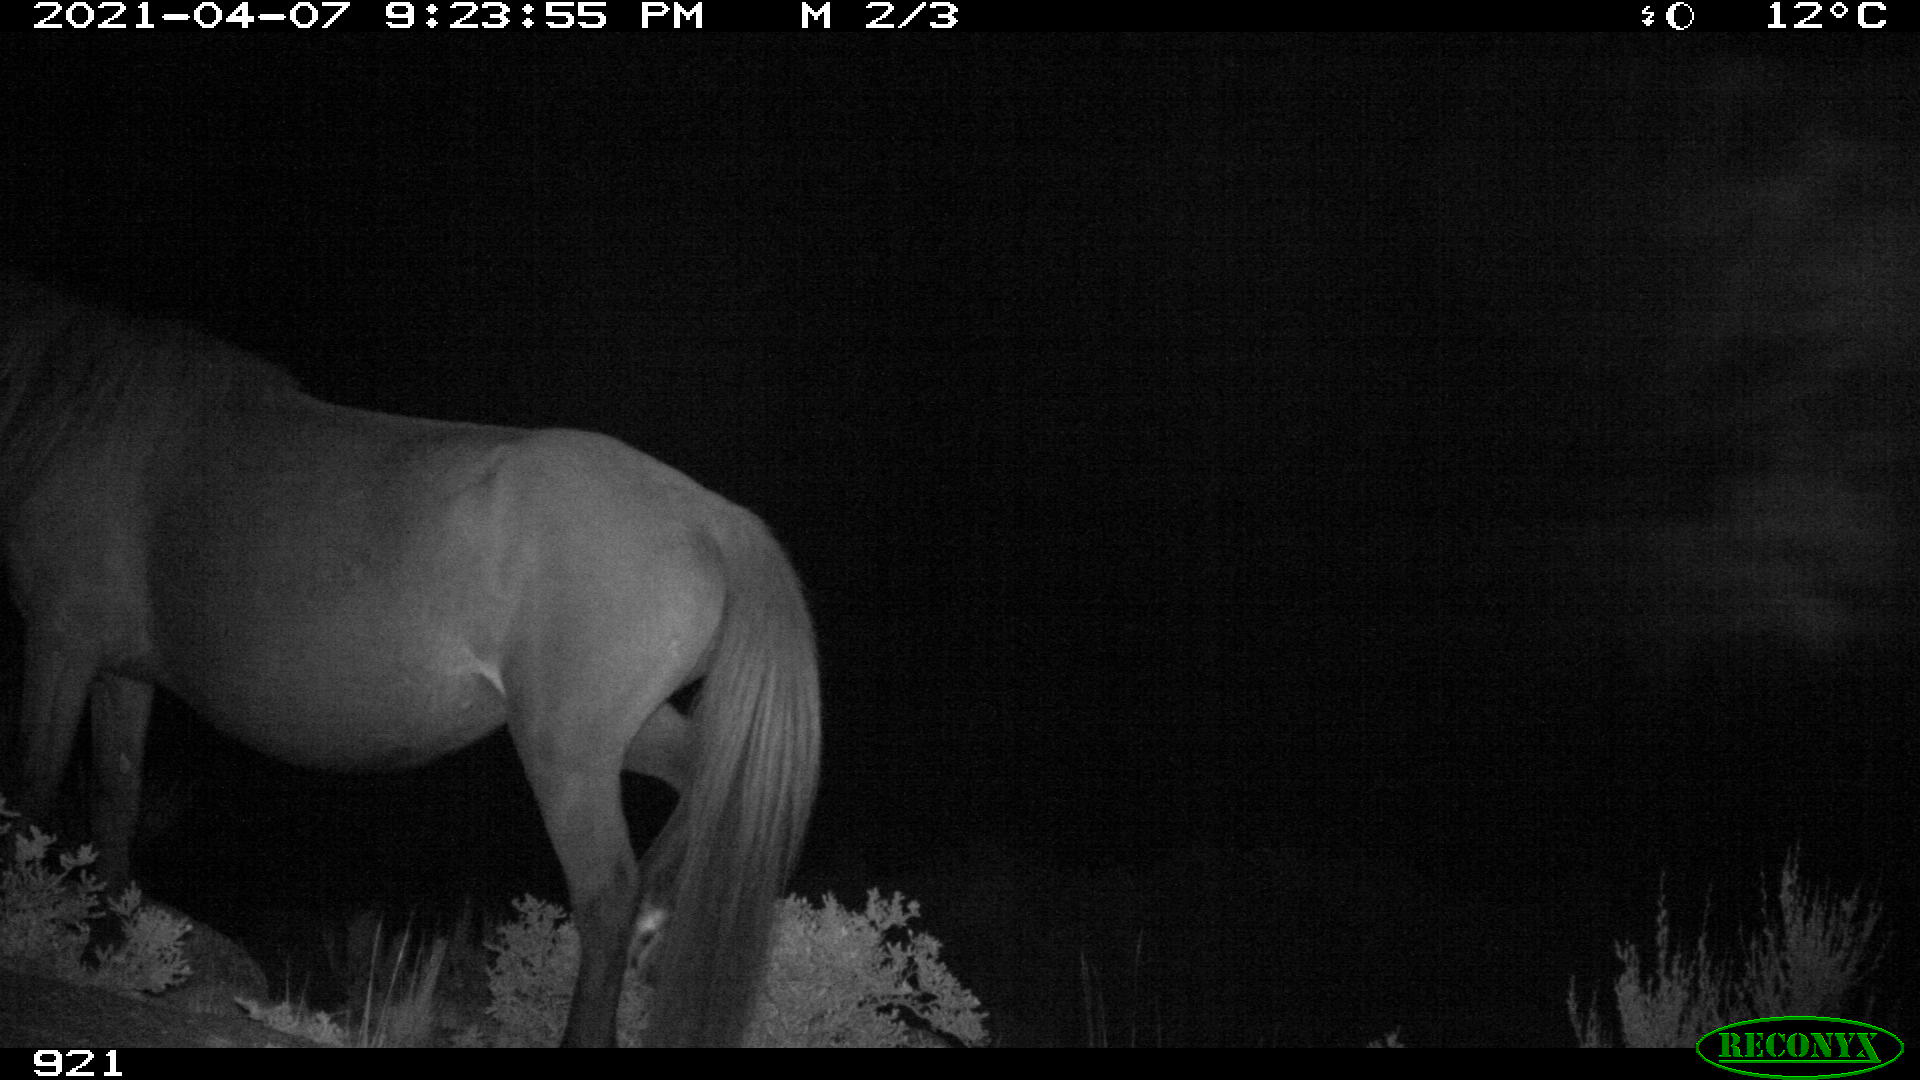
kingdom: Animalia
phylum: Chordata
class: Mammalia
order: Perissodactyla
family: Equidae
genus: Equus
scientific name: Equus caballus
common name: Horse
